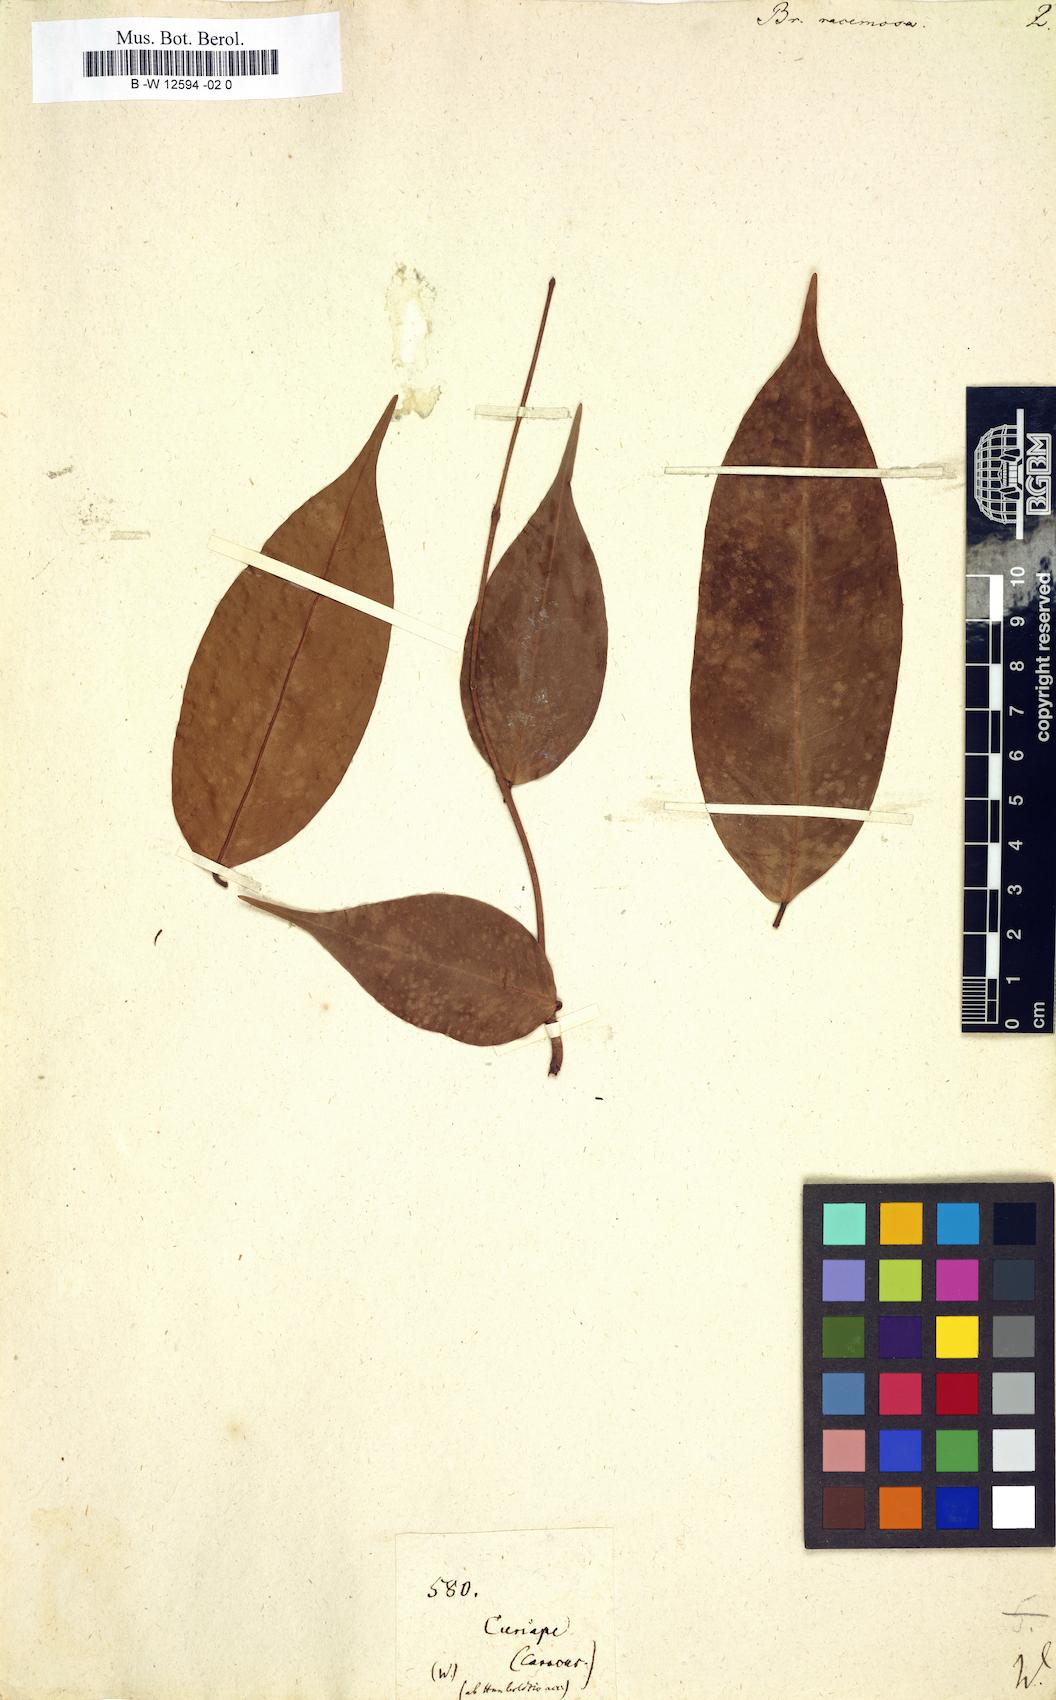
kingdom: Plantae
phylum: Tracheophyta
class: Magnoliopsida
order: Fabales
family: Fabaceae
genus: Brownea
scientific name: Brownea coccinea
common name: Scarlet flame-bean
